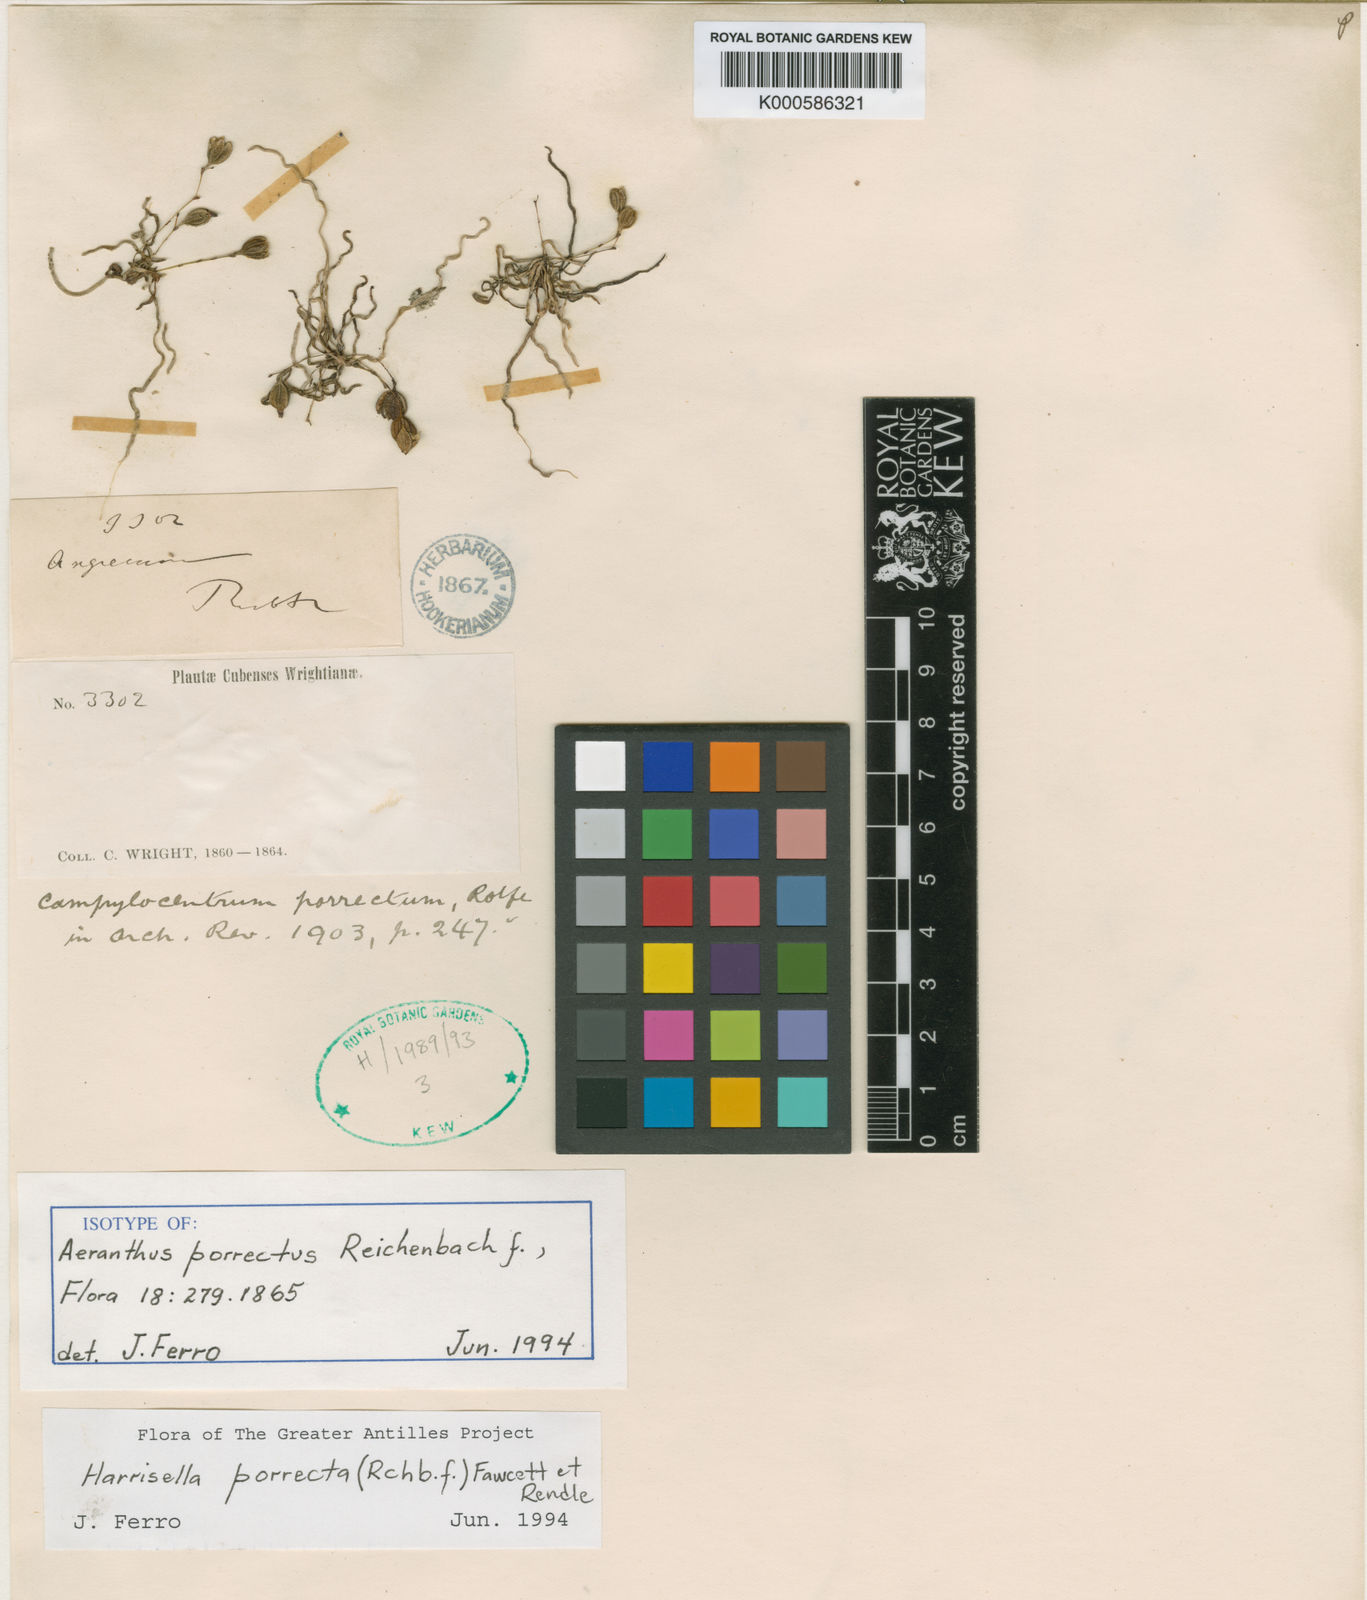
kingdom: Plantae
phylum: Tracheophyta
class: Liliopsida
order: Asparagales
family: Orchidaceae
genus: Dendrophylax
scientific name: Dendrophylax porrectus
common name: Needleroot airplant orchid
